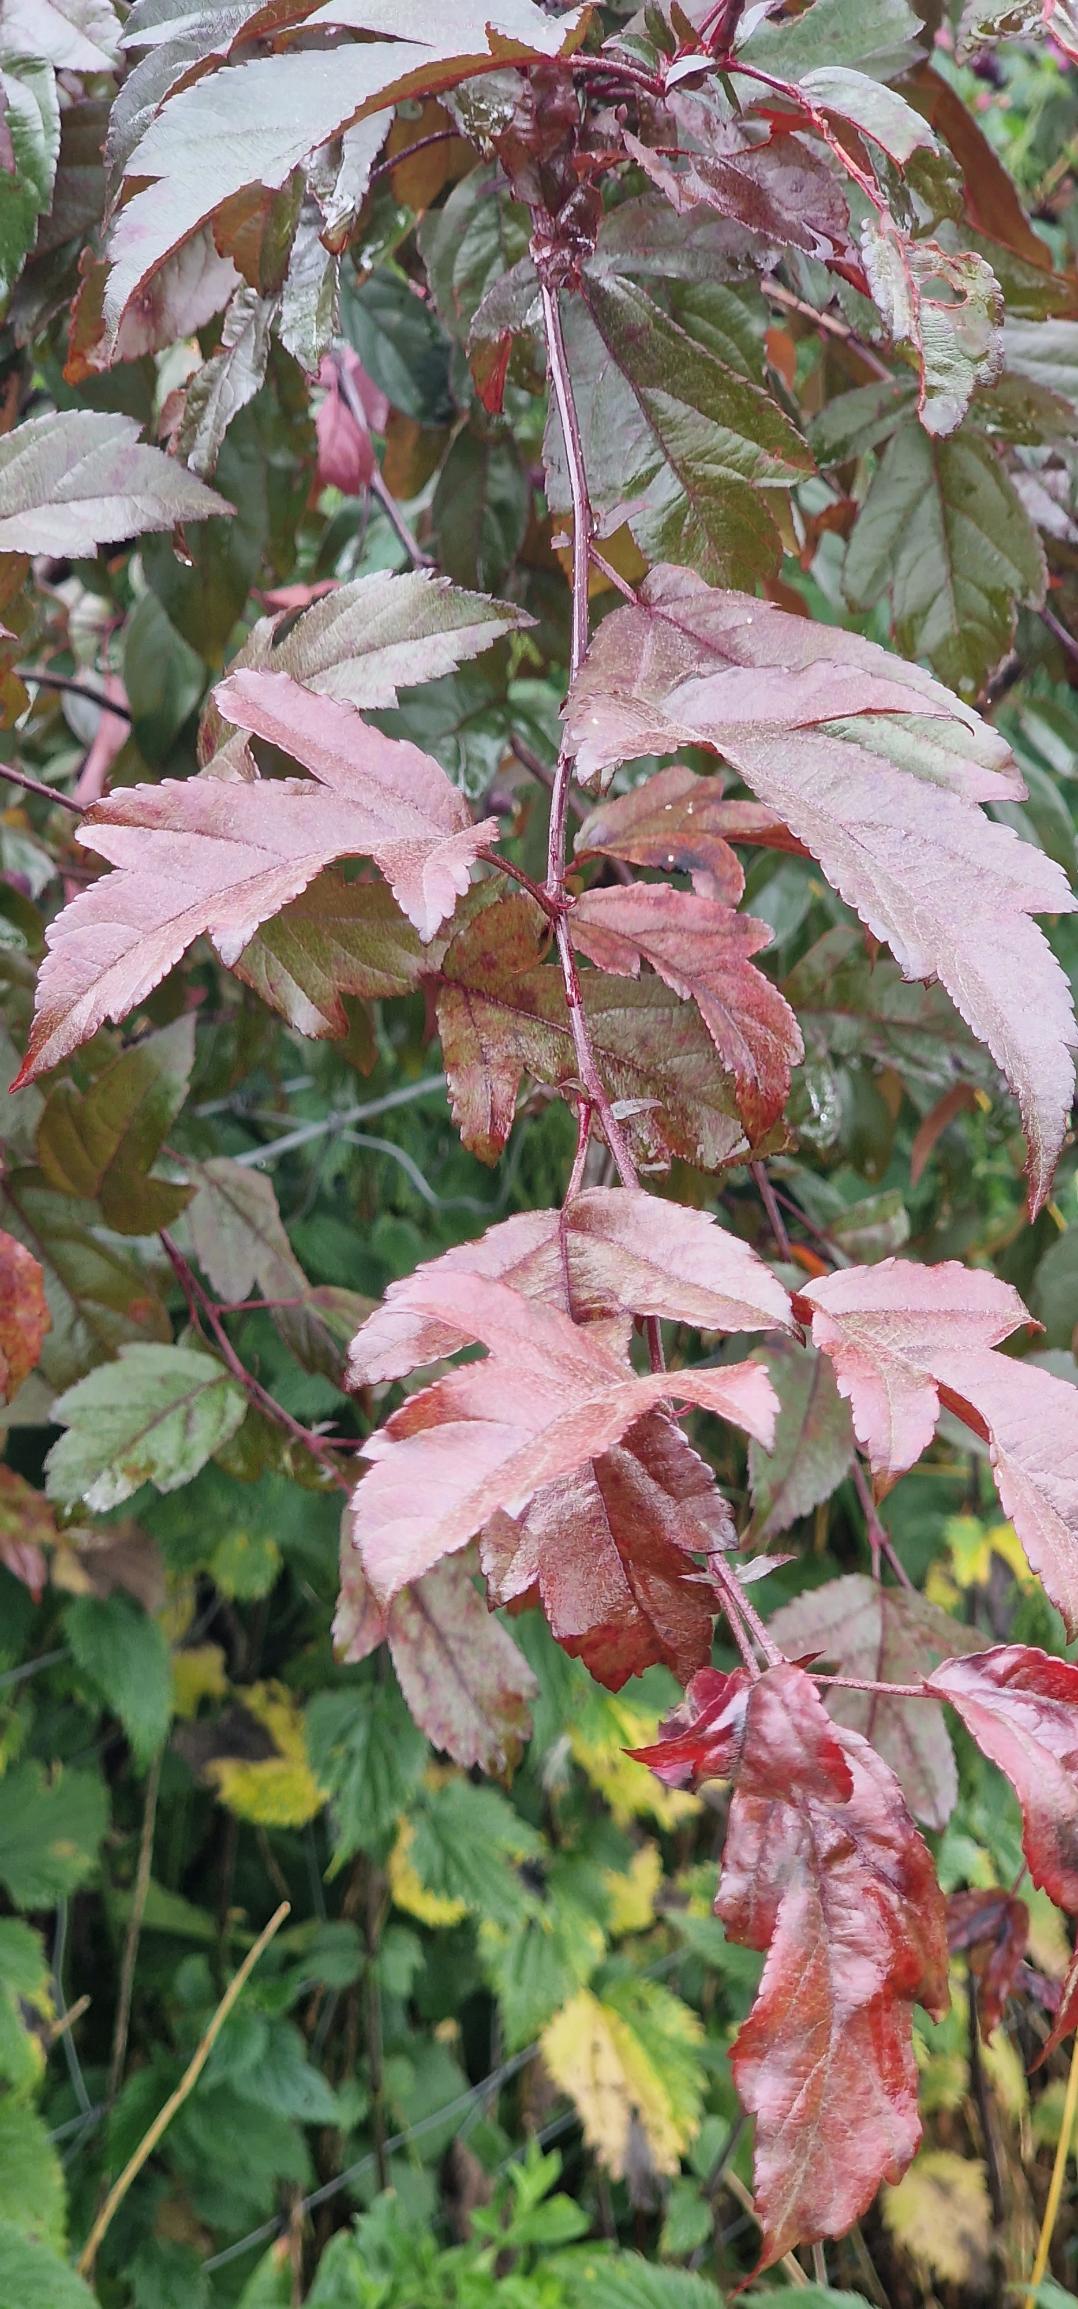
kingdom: Plantae
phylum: Tracheophyta
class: Magnoliopsida
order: Rosales
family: Rosaceae
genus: Malus
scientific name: Malus
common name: Æbleslægten
